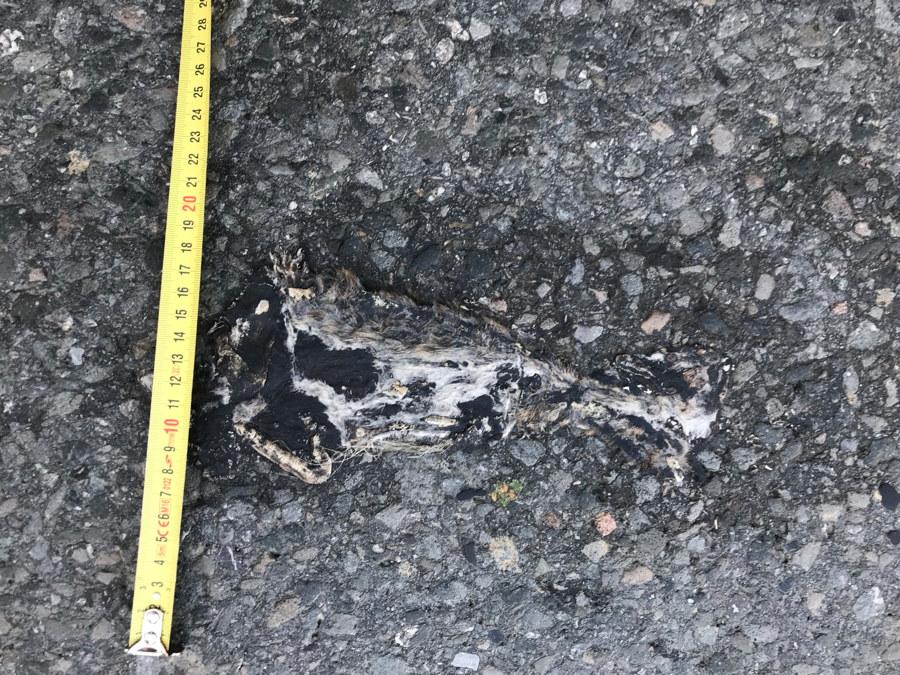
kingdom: Animalia
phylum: Chordata
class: Mammalia
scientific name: Mammalia
